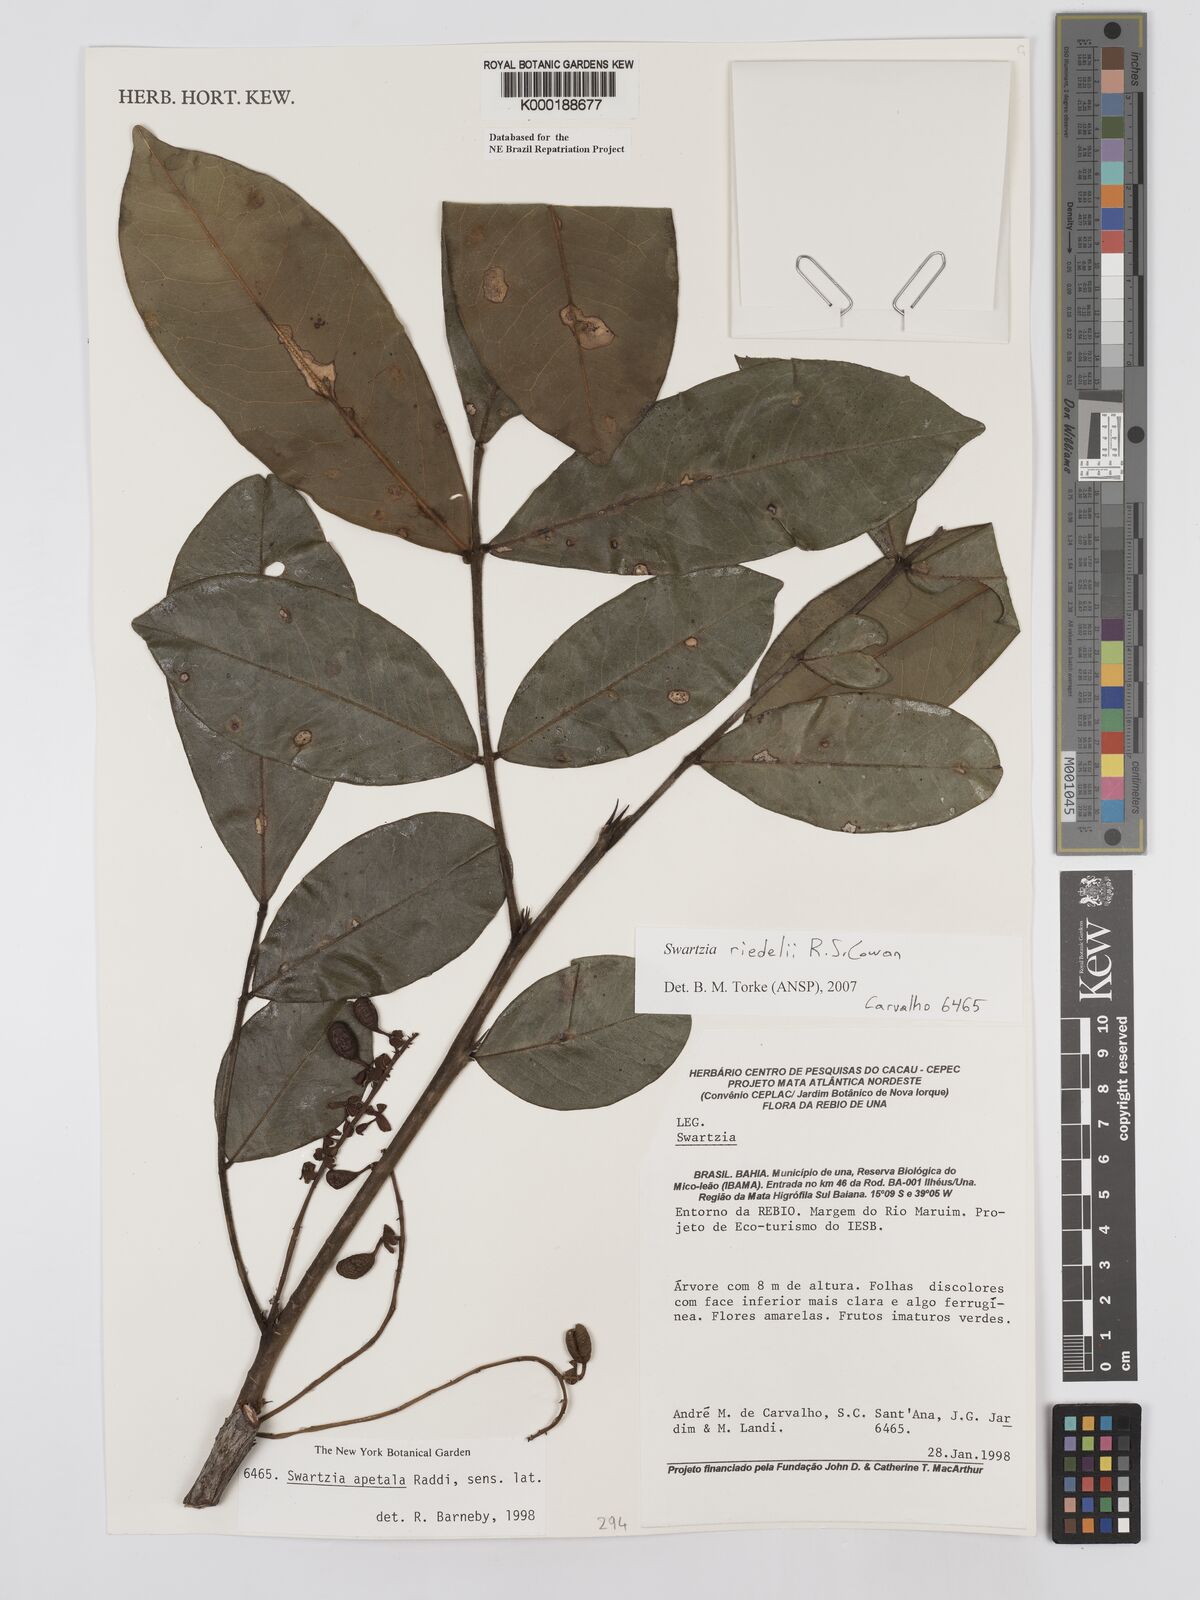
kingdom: Plantae
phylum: Tracheophyta
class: Magnoliopsida
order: Fabales
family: Fabaceae
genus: Swartzia
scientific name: Swartzia apetala
